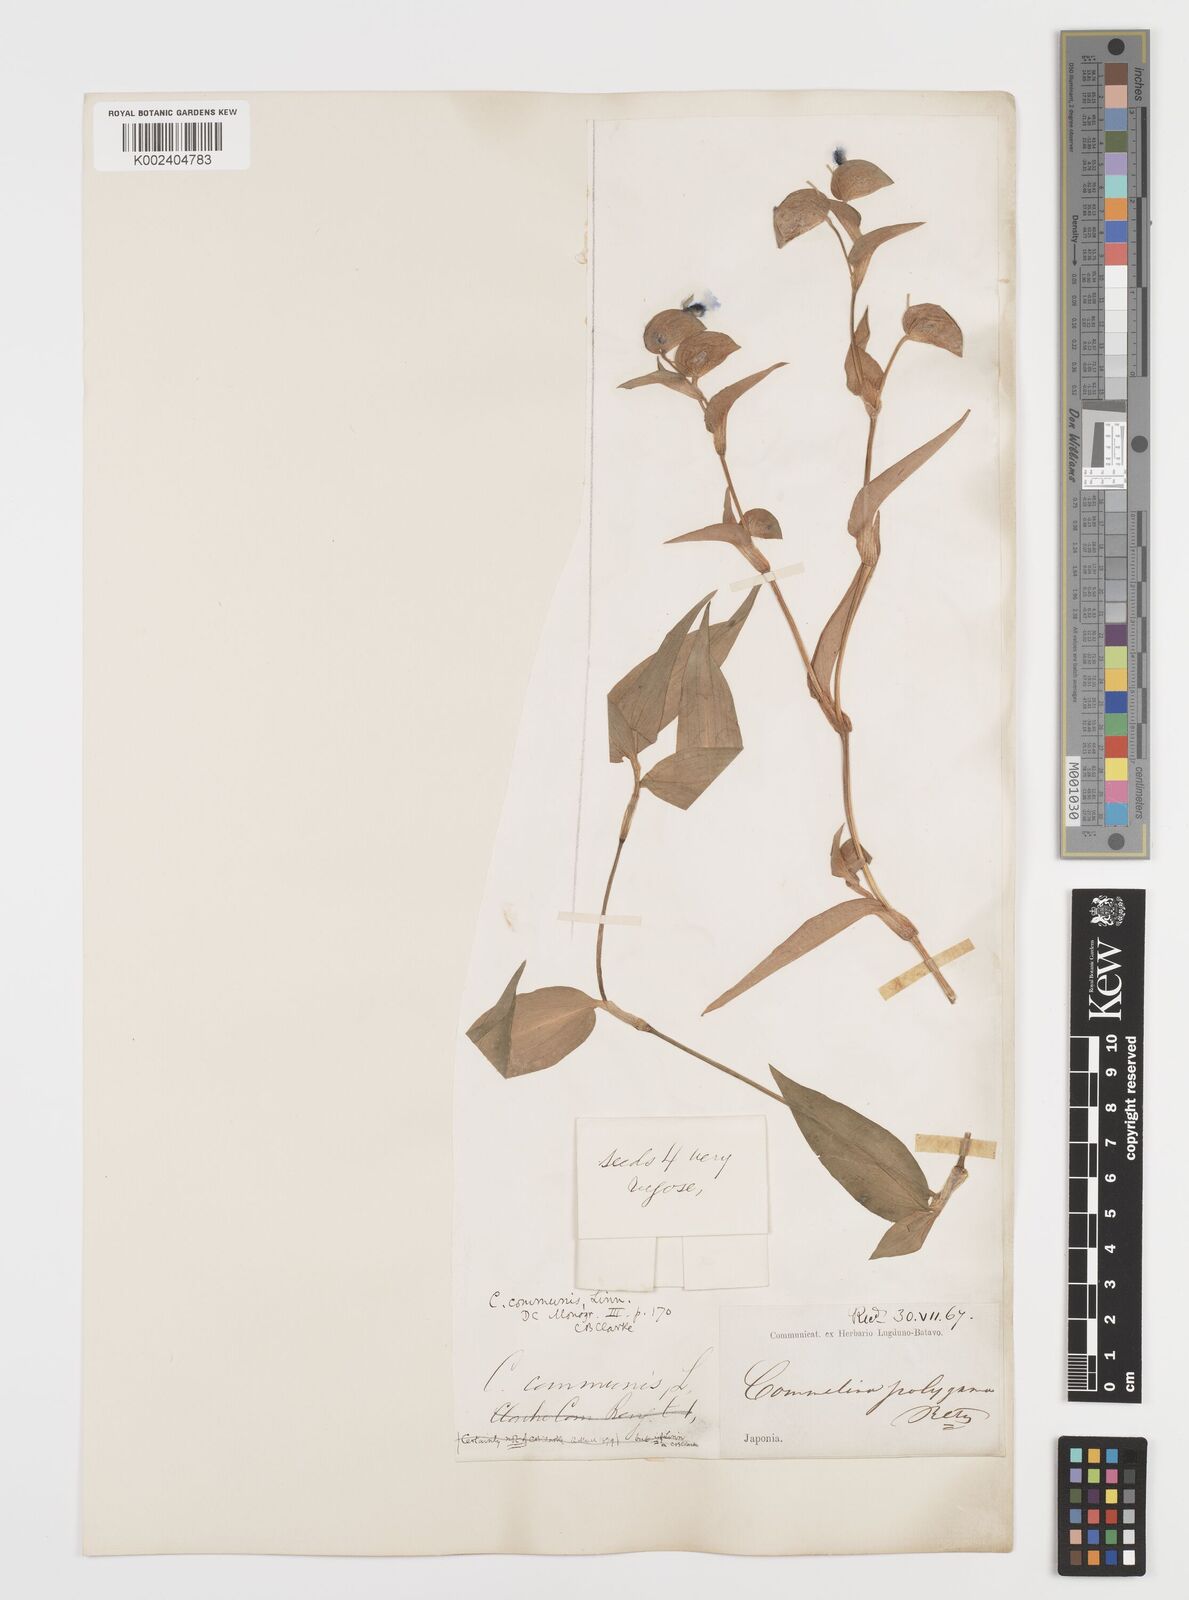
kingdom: Plantae
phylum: Tracheophyta
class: Liliopsida
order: Commelinales
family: Commelinaceae
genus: Commelina
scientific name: Commelina communis
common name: Asiatic dayflower
